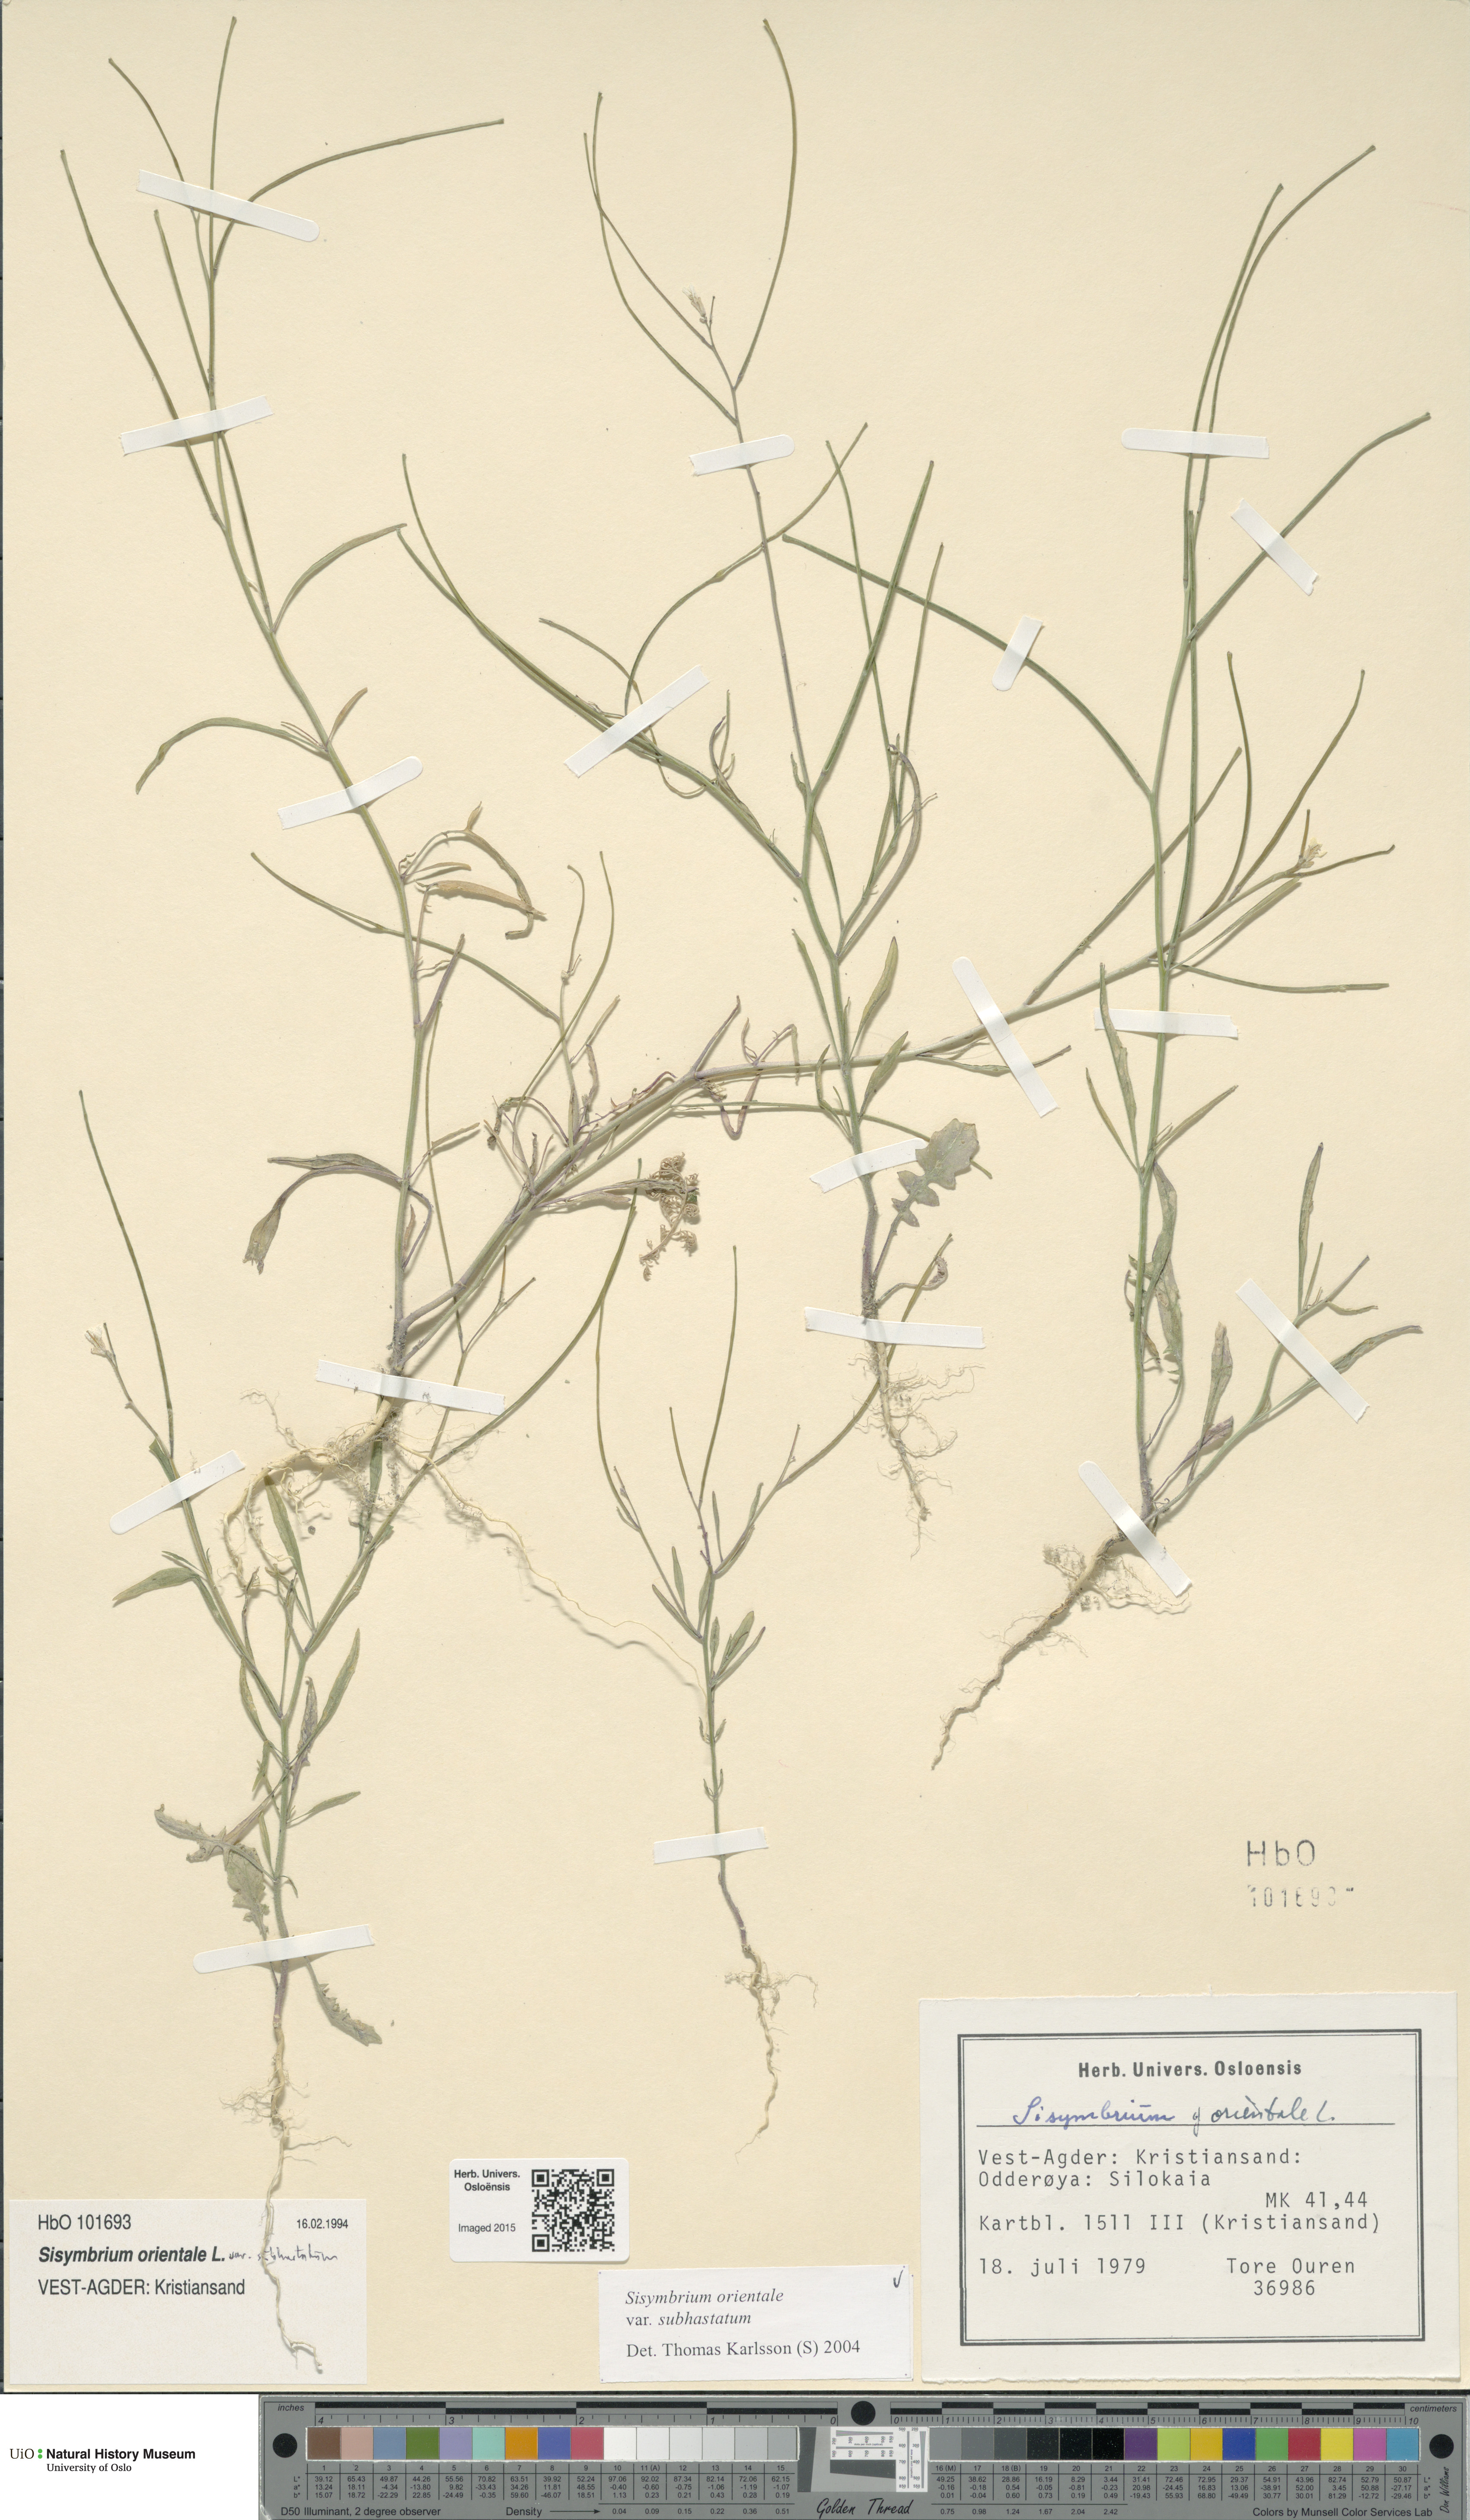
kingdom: Plantae
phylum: Tracheophyta
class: Magnoliopsida
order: Brassicales
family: Brassicaceae
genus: Sisymbrium
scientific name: Sisymbrium orientale
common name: Eastern rocket
